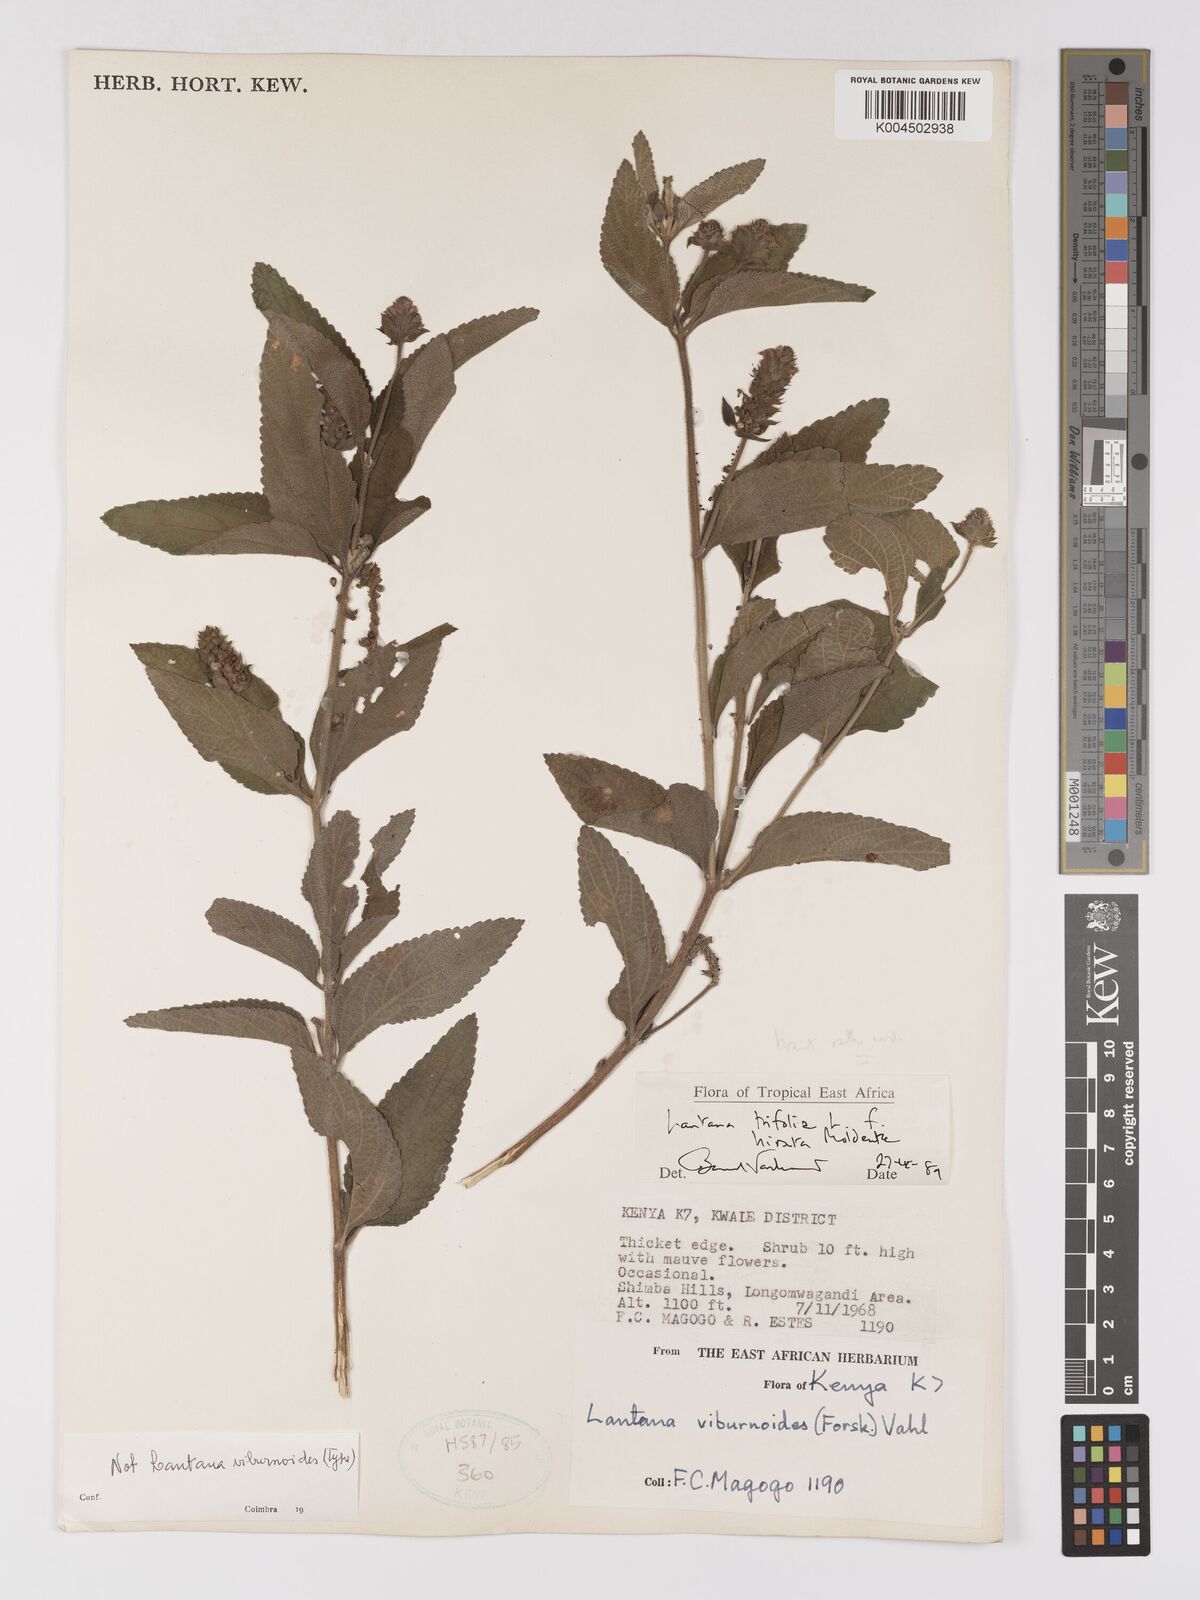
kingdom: Plantae
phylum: Tracheophyta
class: Magnoliopsida
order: Lamiales
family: Verbenaceae
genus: Lantana
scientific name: Lantana trifolia
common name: Sweet-sage
